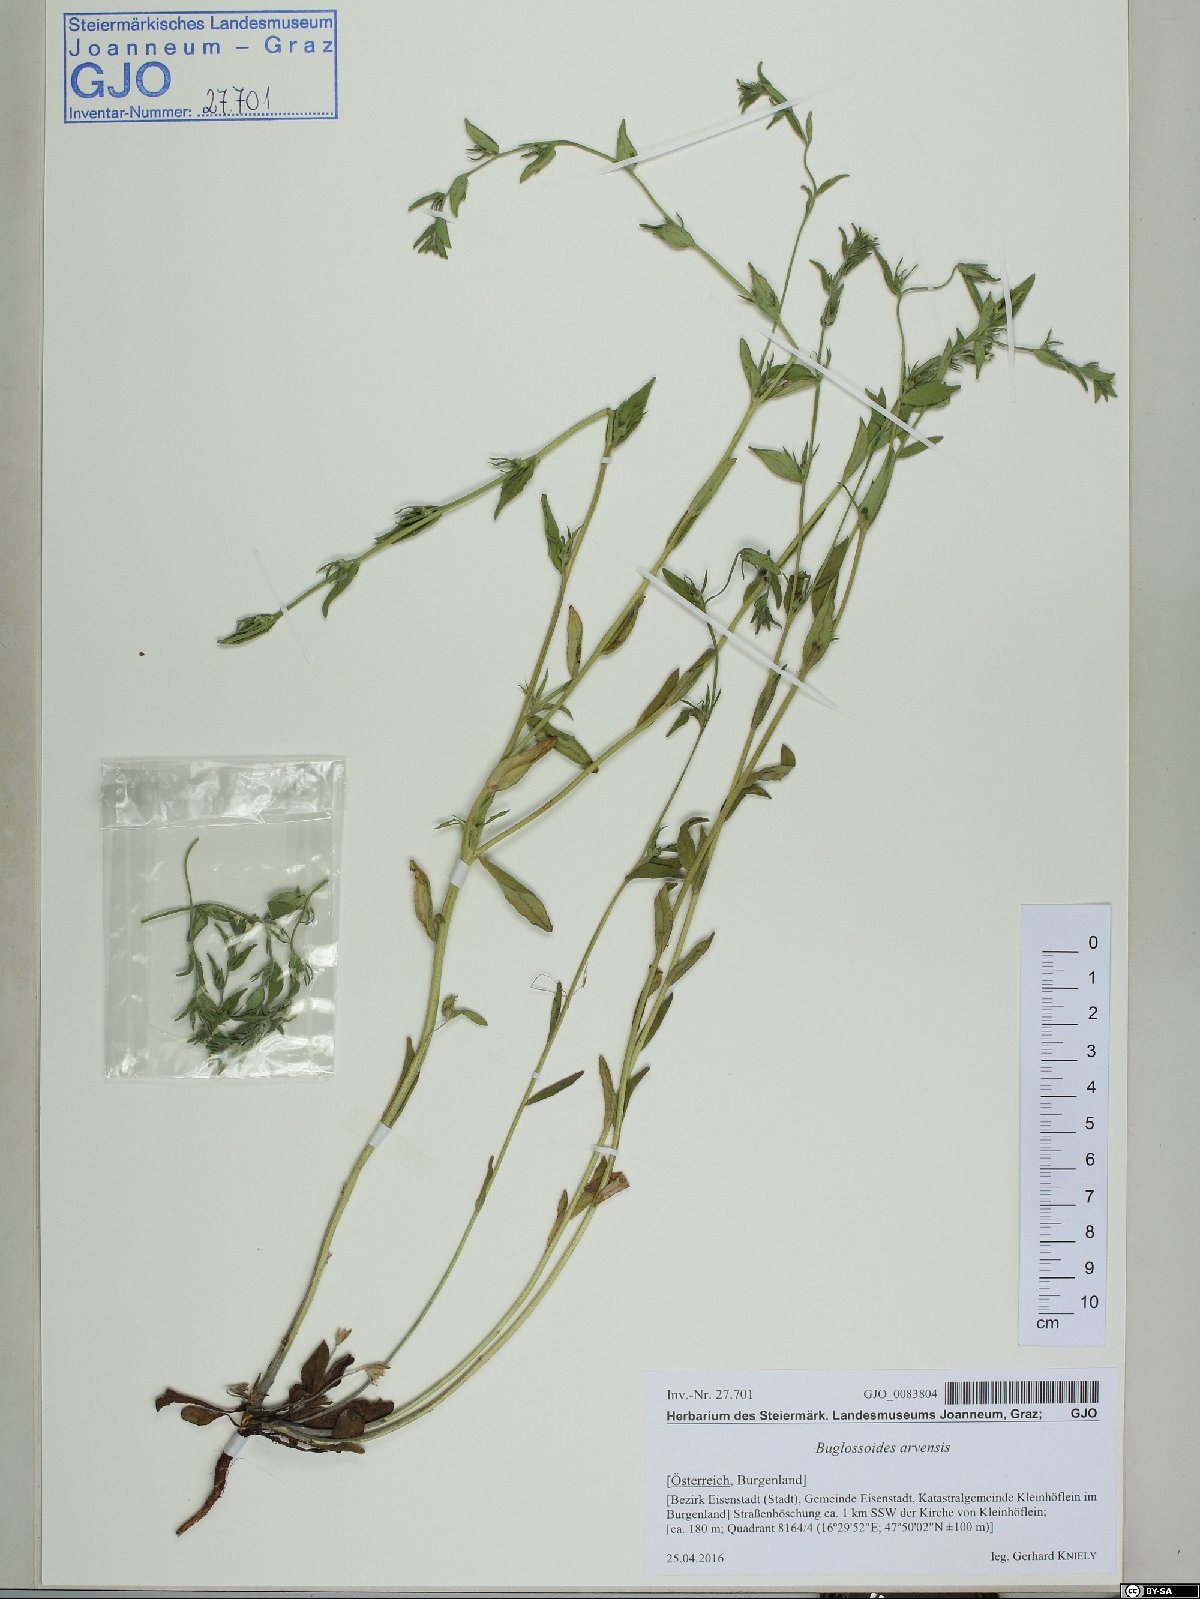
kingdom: Plantae
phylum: Tracheophyta
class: Magnoliopsida
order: Boraginales
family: Boraginaceae
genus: Buglossoides
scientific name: Buglossoides arvensis
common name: Corn gromwell
